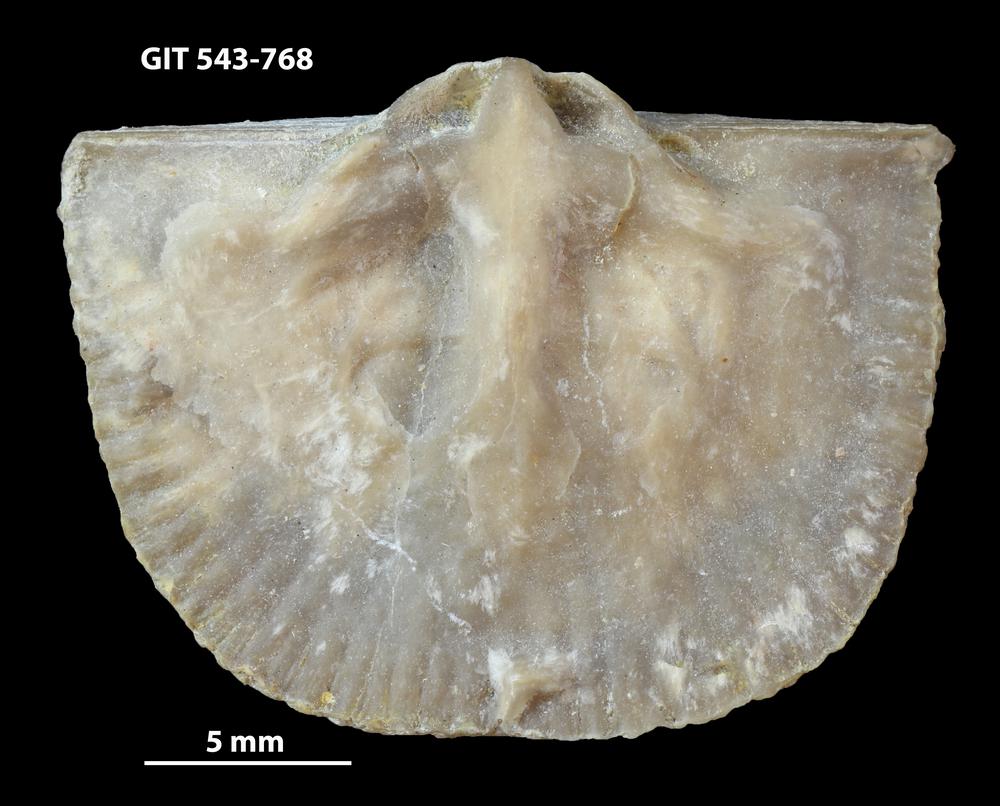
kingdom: Animalia
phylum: Brachiopoda
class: Rhynchonellata
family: Clitambonitidae
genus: Vellamo
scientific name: Vellamo wesenbergiensis
